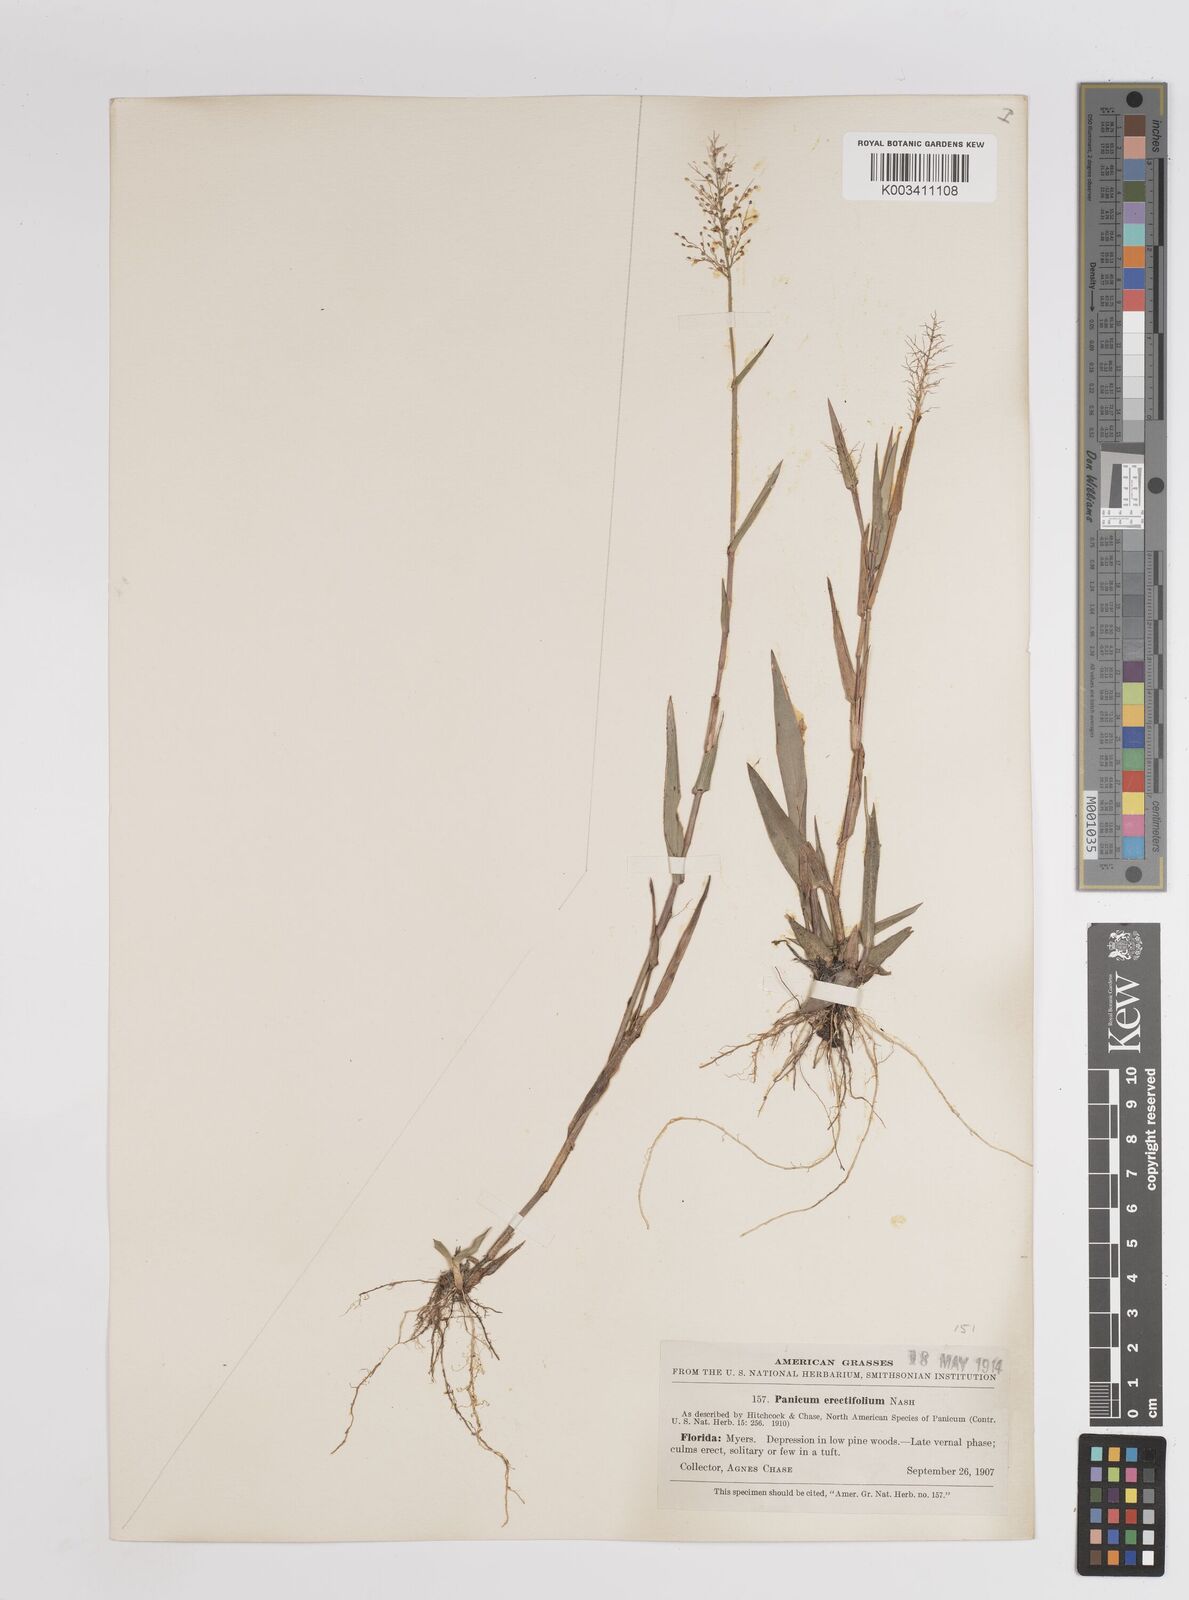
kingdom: Plantae
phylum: Tracheophyta
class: Liliopsida
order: Poales
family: Poaceae
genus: Dichanthelium
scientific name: Dichanthelium erectifolium
